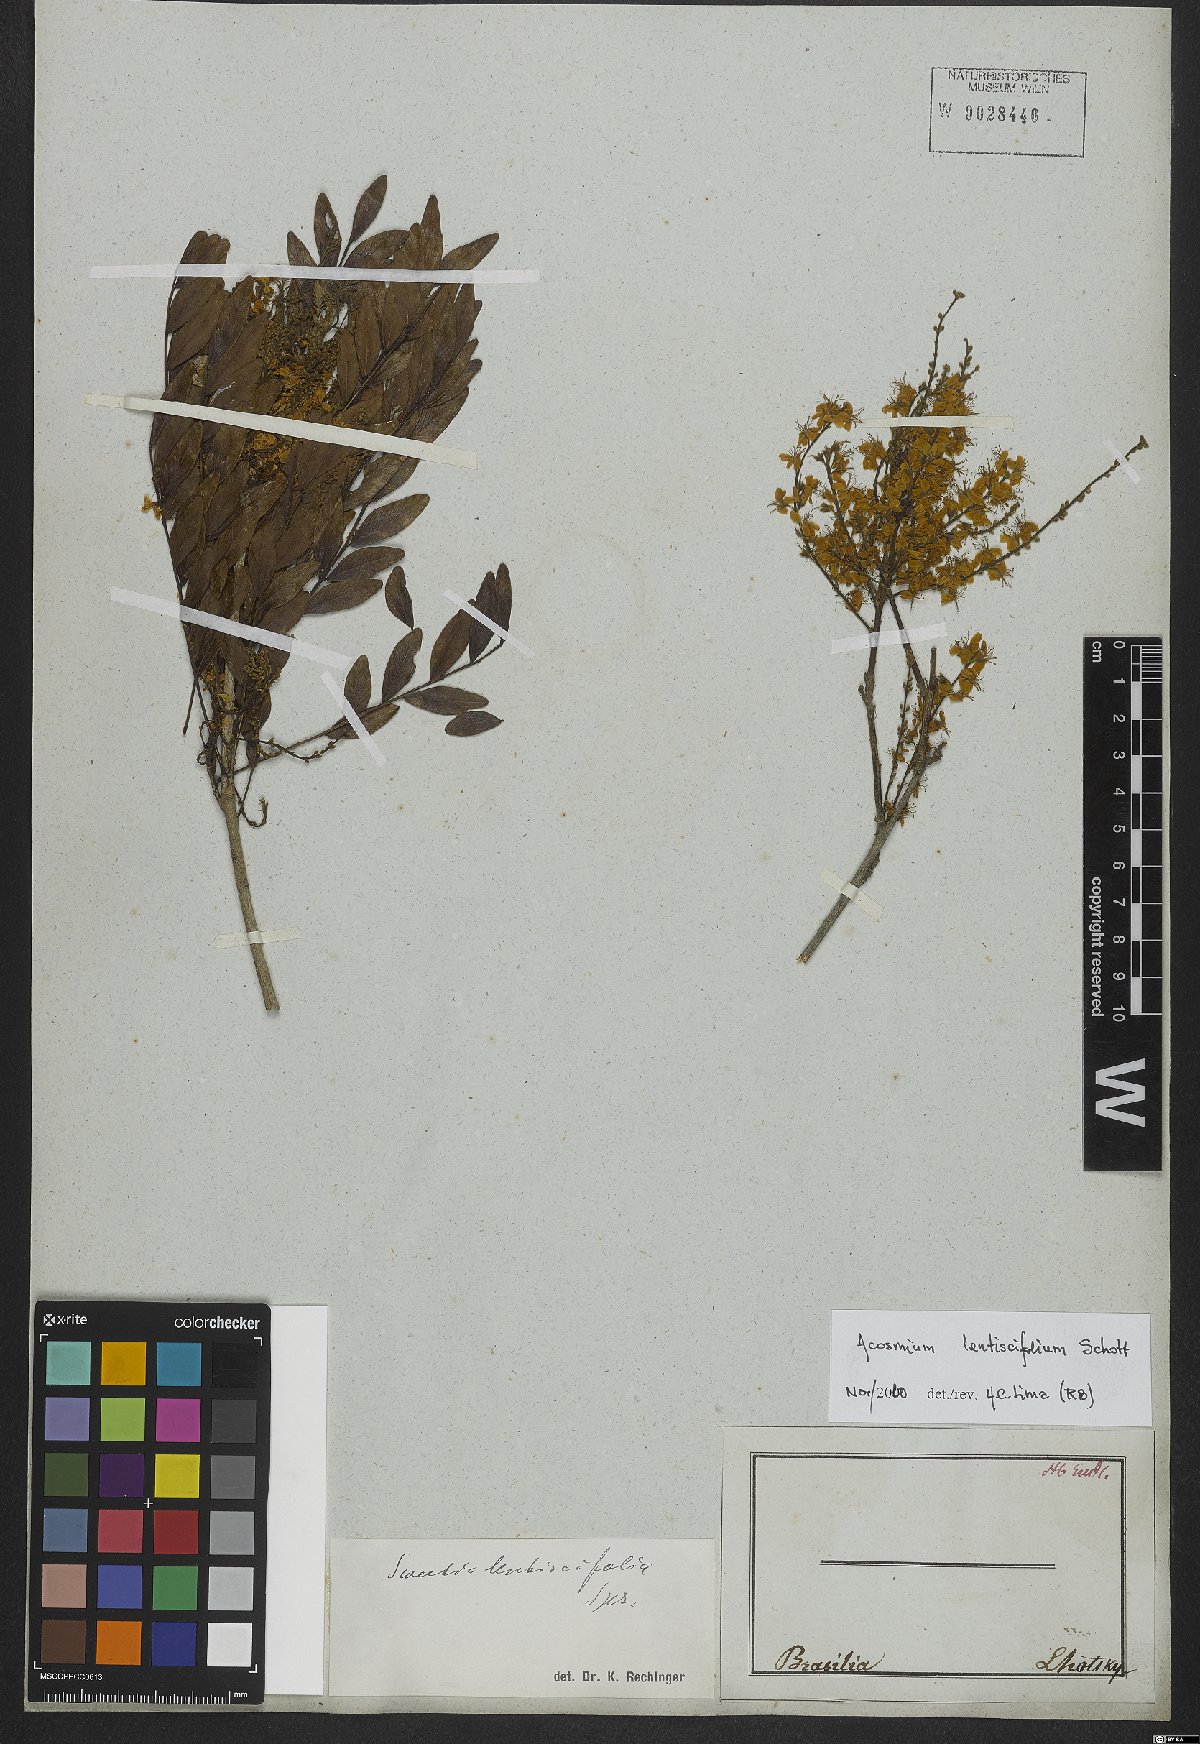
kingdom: Plantae
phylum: Tracheophyta
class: Magnoliopsida
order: Fabales
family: Fabaceae
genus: Acosmium
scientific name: Acosmium lentiscifolium
